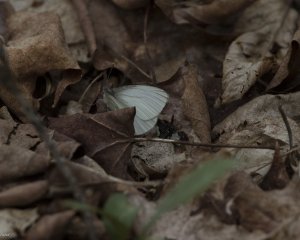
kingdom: Animalia
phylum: Arthropoda
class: Insecta
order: Lepidoptera
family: Pieridae
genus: Pieris
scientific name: Pieris oleracea
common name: Mustard White
